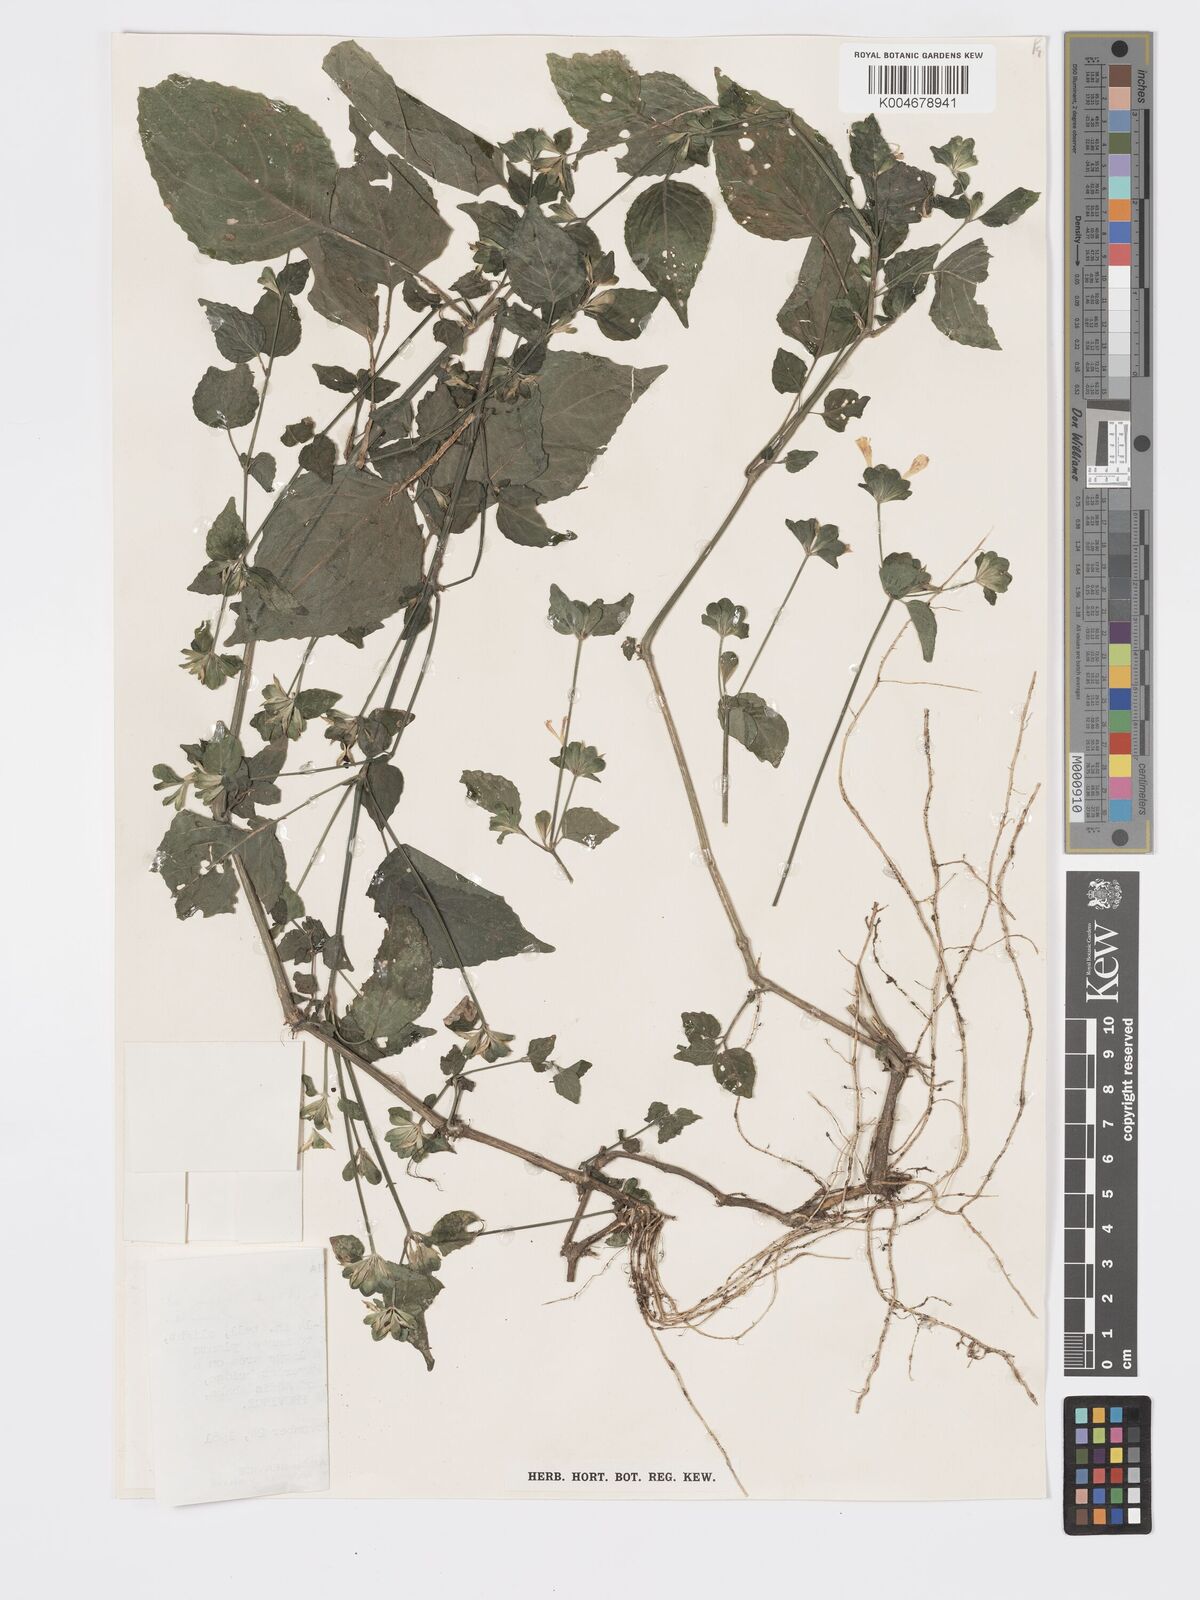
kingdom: Plantae
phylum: Tracheophyta
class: Magnoliopsida
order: Lamiales
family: Acanthaceae
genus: Hypoestes
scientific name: Hypoestes triflora
